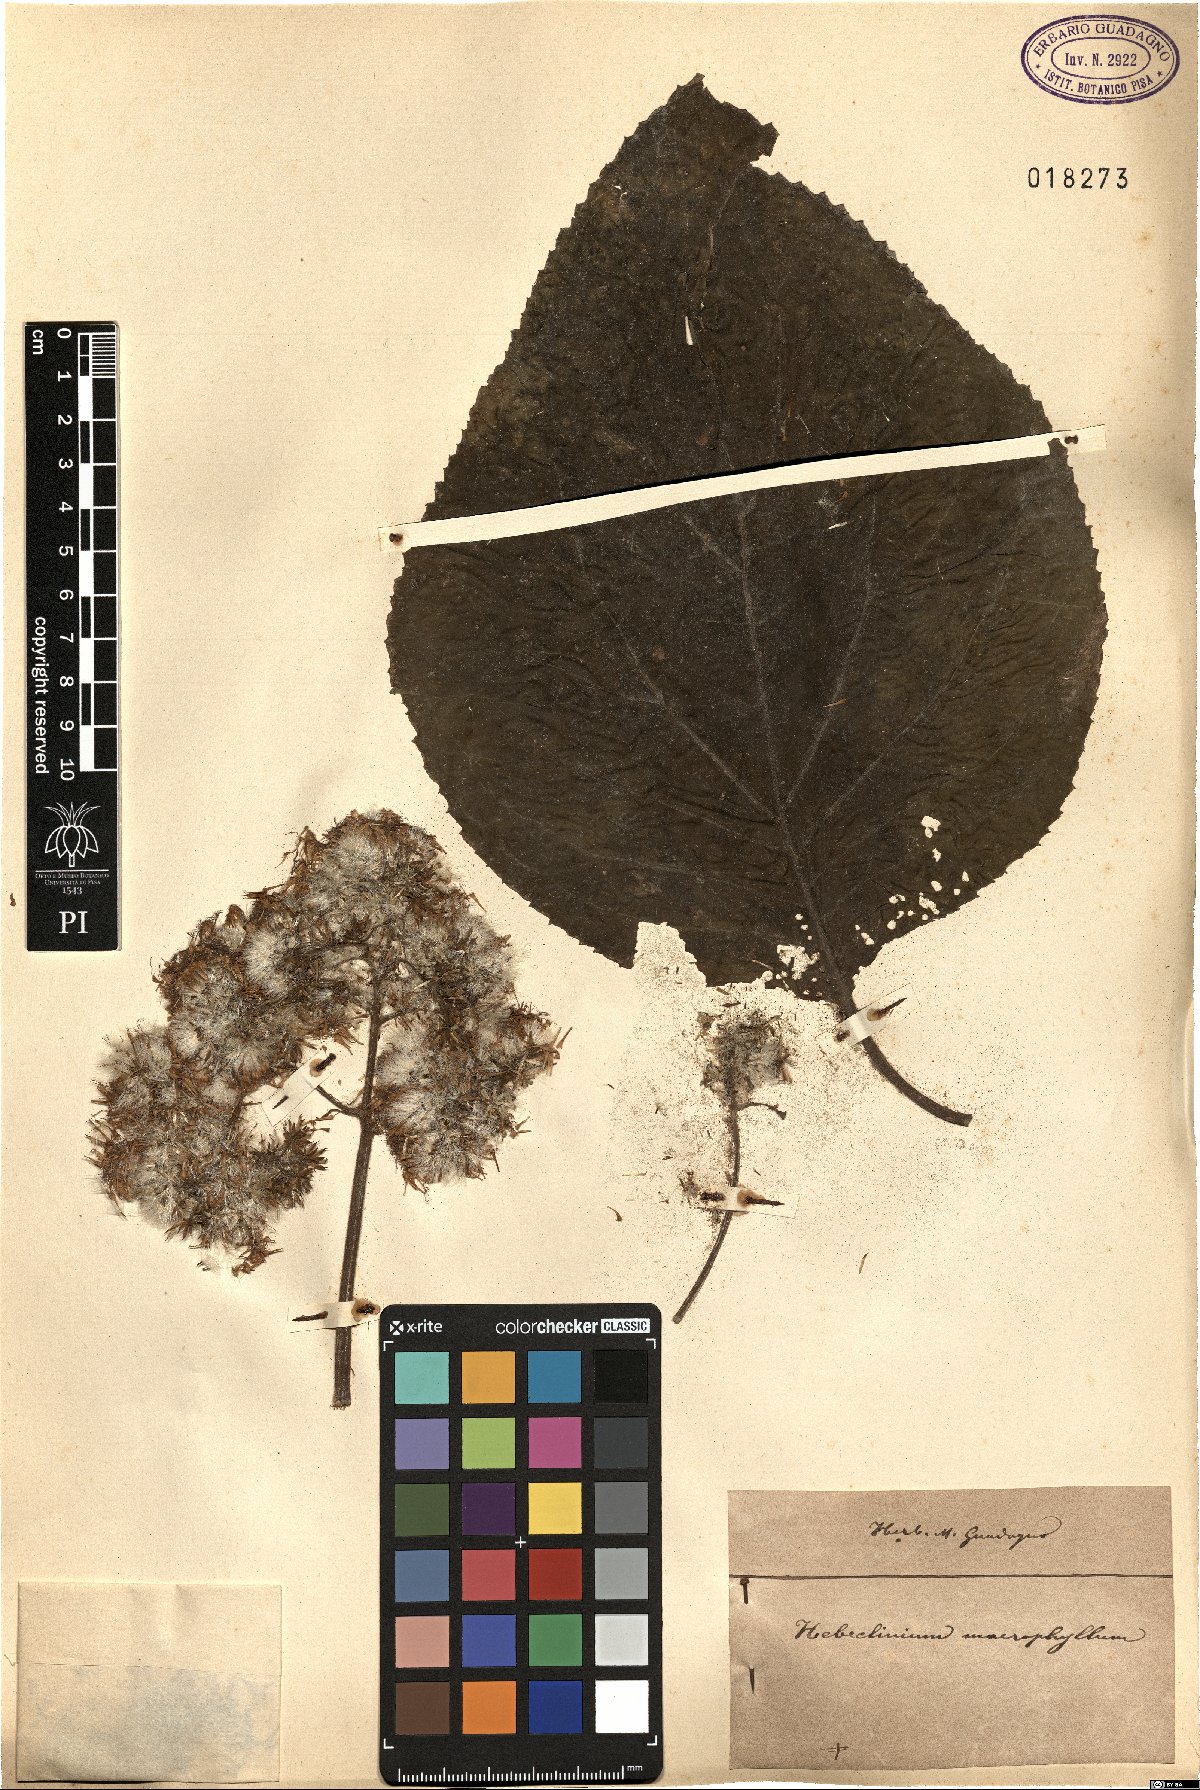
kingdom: Plantae
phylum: Tracheophyta
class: Magnoliopsida
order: Asterales
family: Asteraceae
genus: Hebeclinium
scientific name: Hebeclinium macrophyllum
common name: Largeleaf thoroughwort
